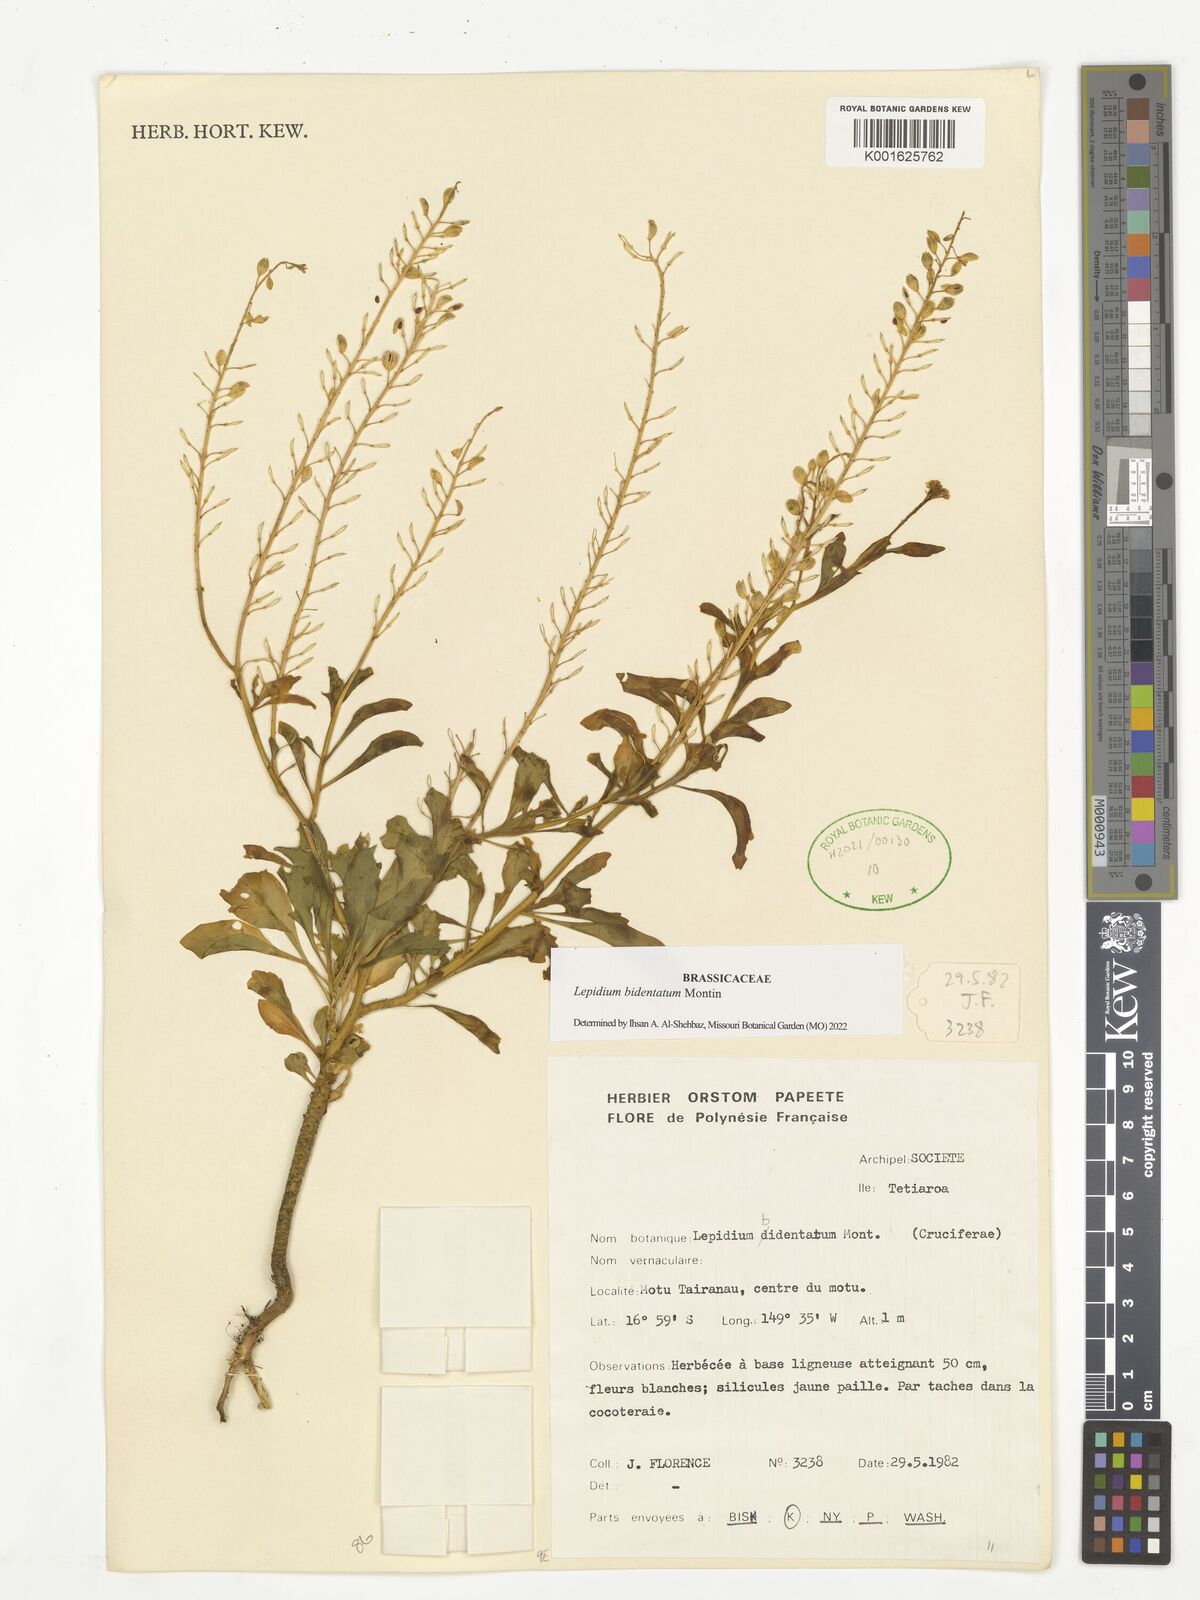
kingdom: Plantae
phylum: Tracheophyta
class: Magnoliopsida
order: Brassicales
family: Brassicaceae
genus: Lepidium
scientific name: Lepidium bidentatum
